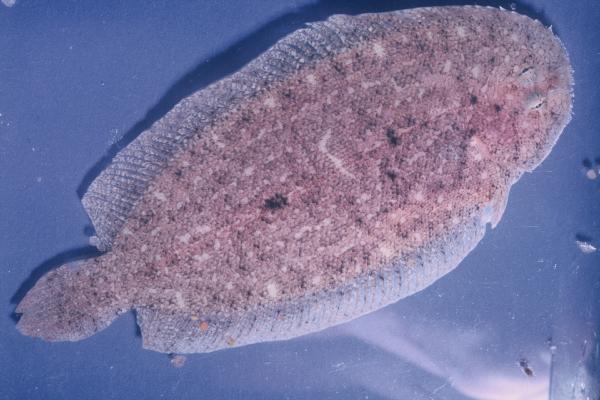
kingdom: Animalia
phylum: Chordata
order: Pleuronectiformes
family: Soleidae
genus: Pegusa
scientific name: Pegusa nasuta
